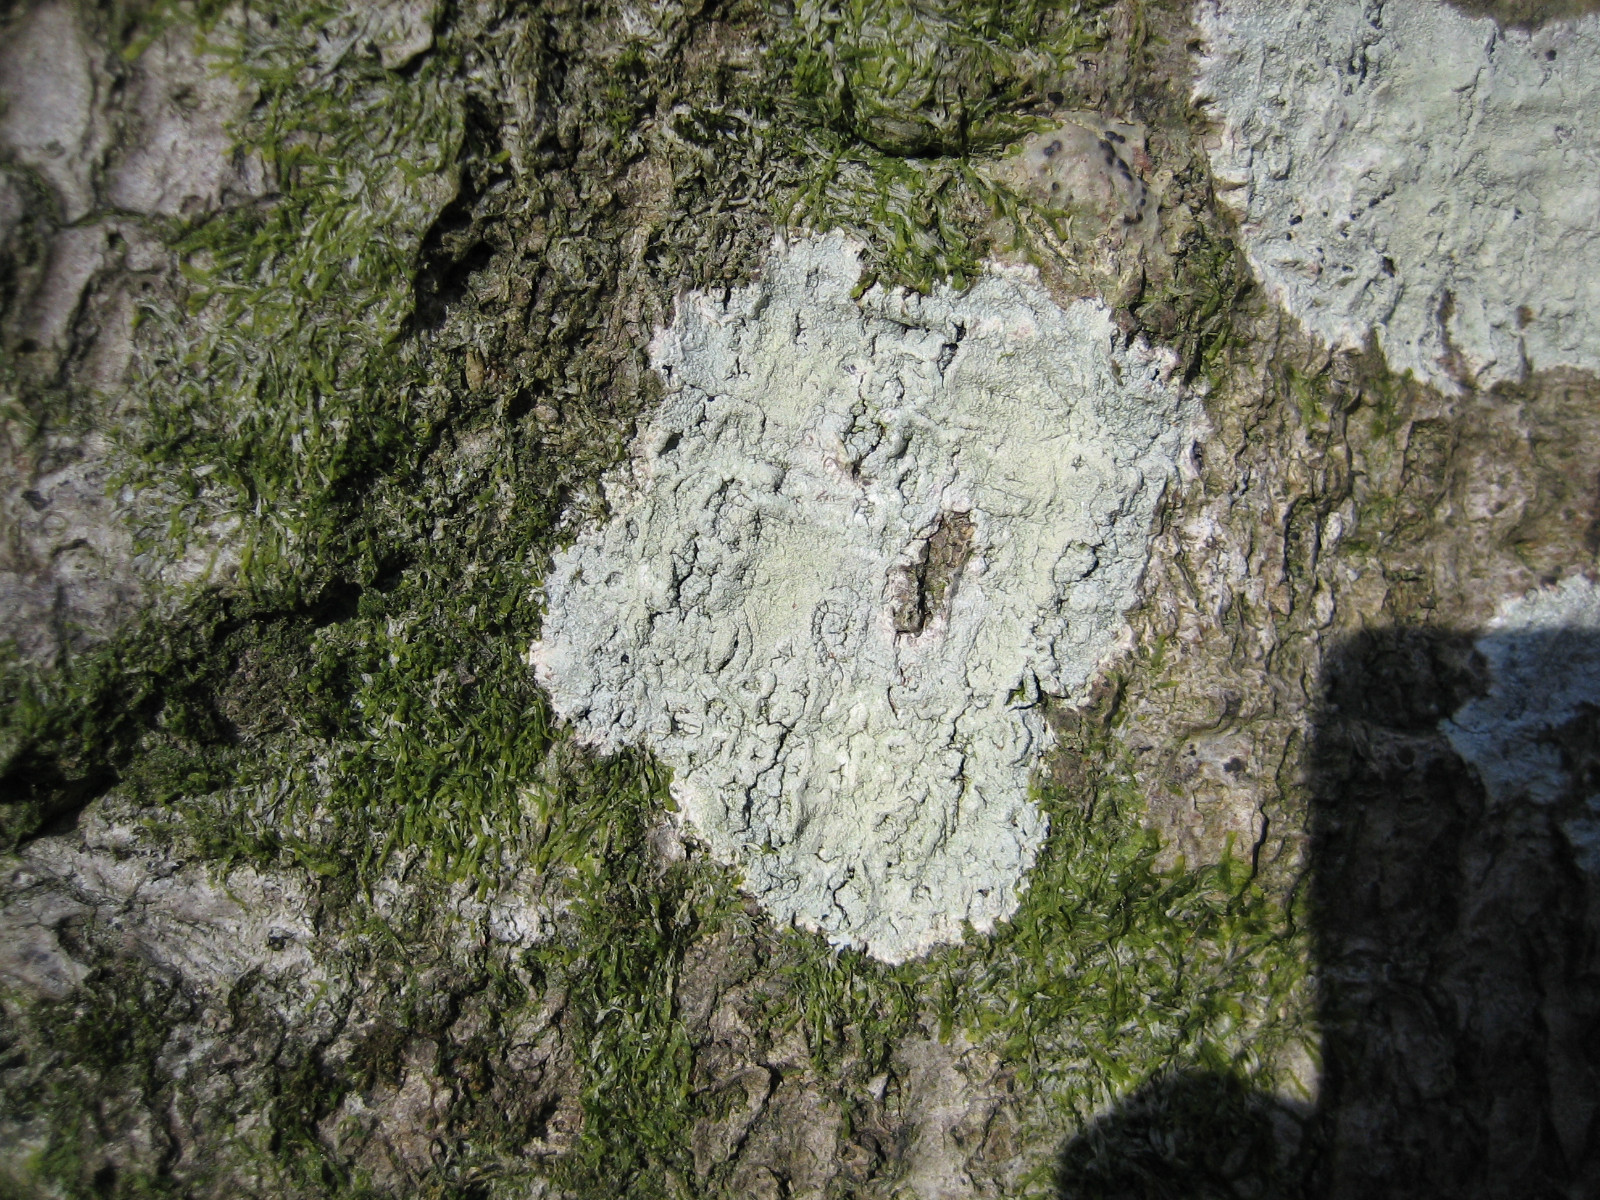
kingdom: Fungi
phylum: Ascomycota
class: Lecanoromycetes
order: Pertusariales
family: Pertusariaceae
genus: Pertusaria
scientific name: Pertusaria flavida
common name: gul prikvortelav
